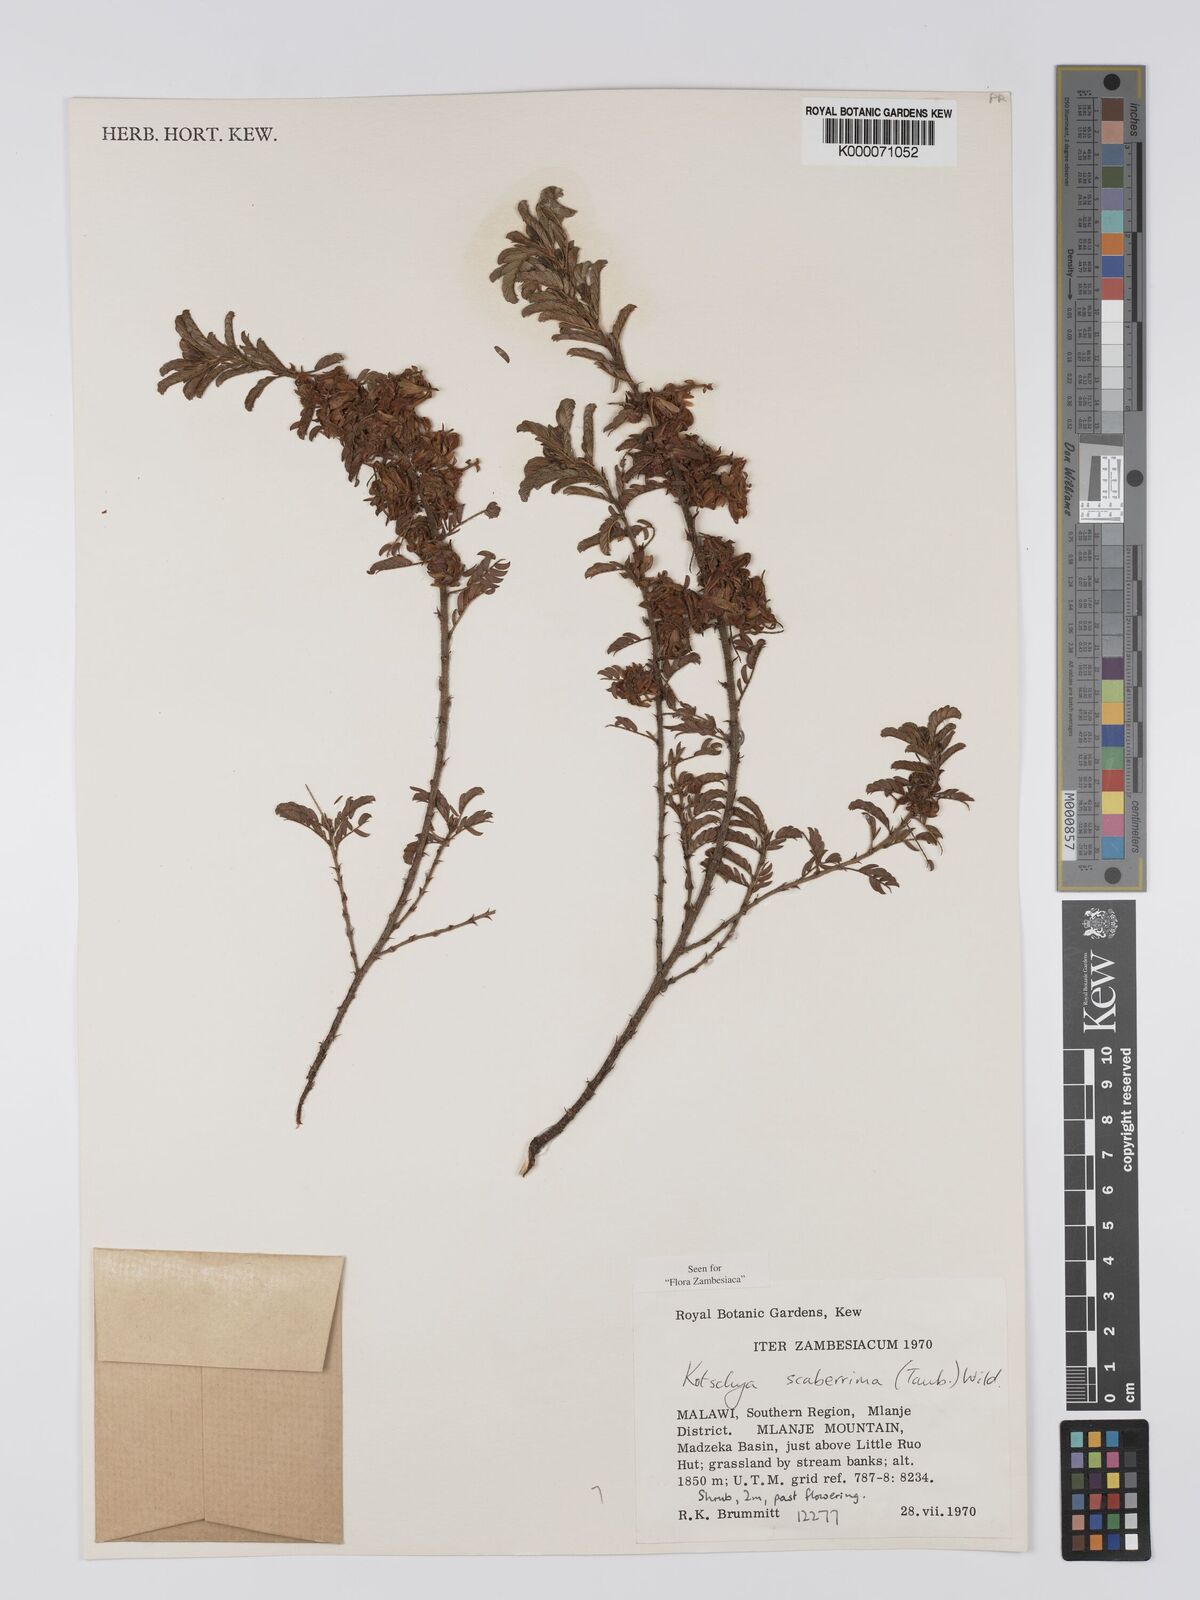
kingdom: Plantae
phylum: Tracheophyta
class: Magnoliopsida
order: Fabales
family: Fabaceae
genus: Kotschya
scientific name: Kotschya scaberrima
